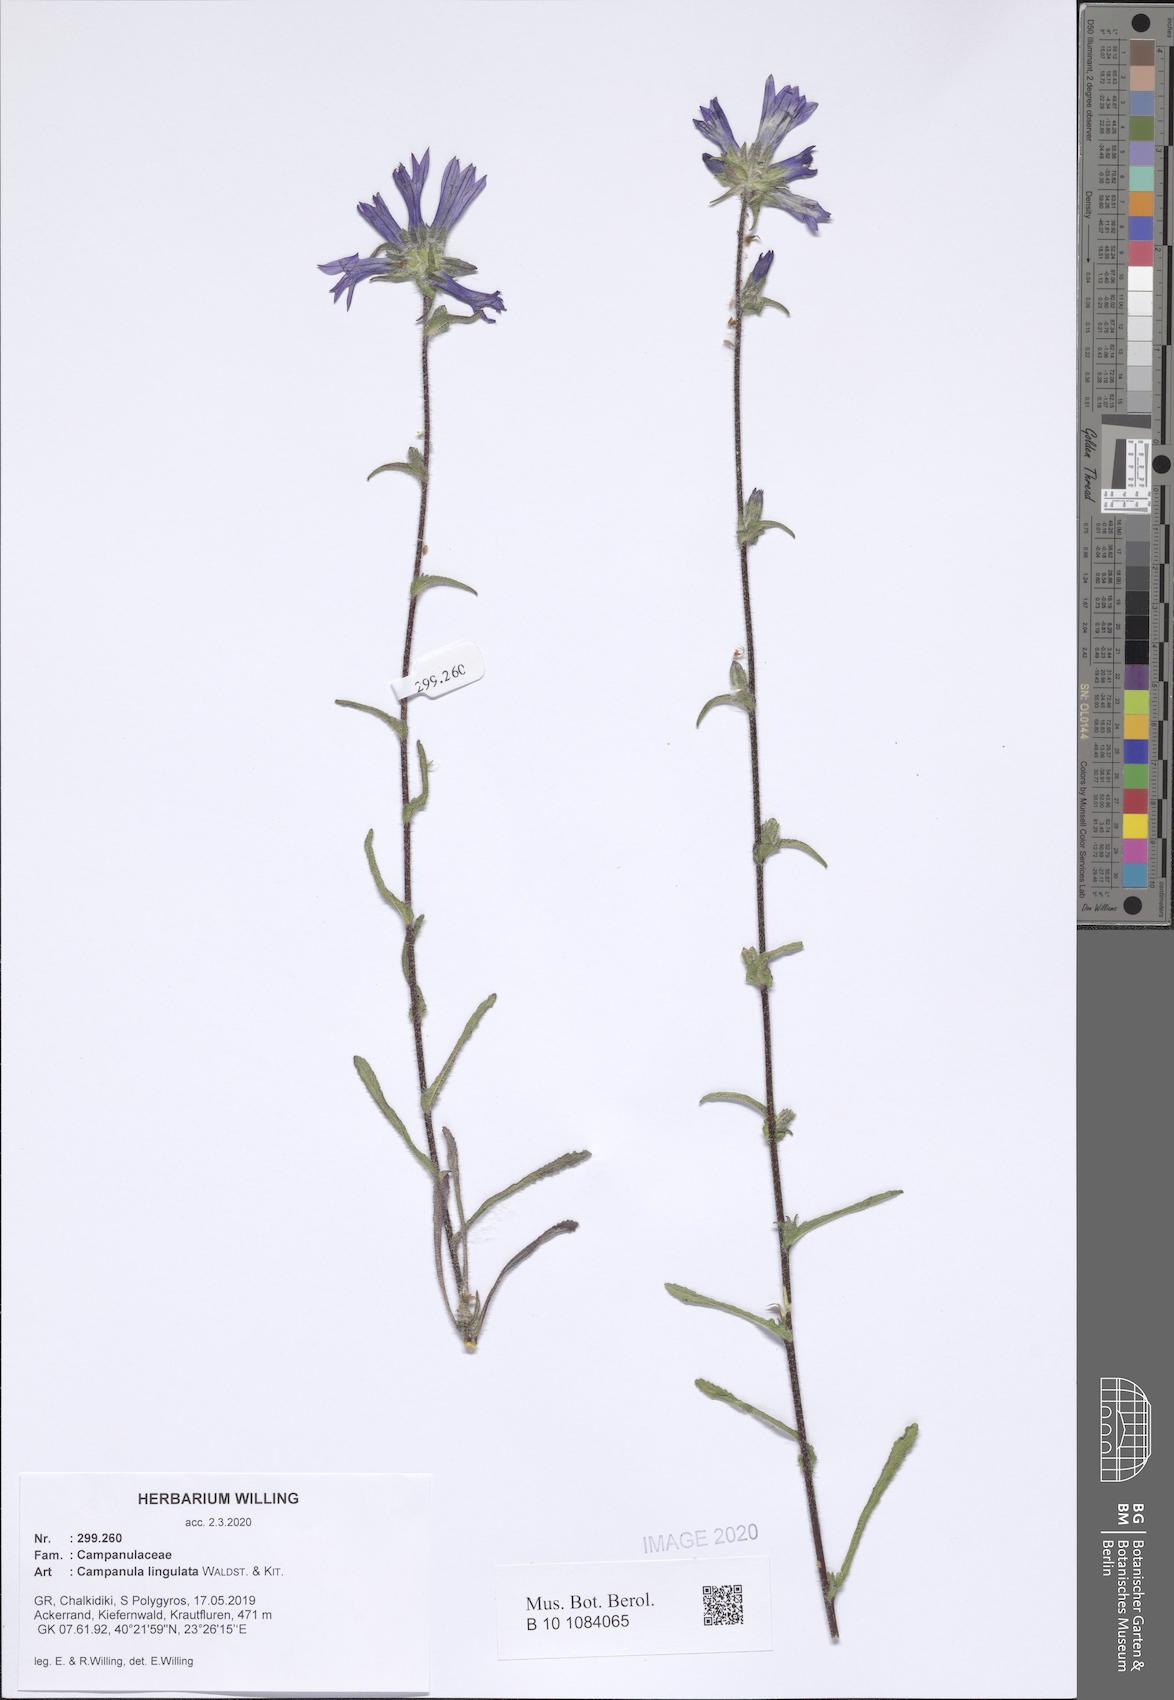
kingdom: Plantae
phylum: Tracheophyta
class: Magnoliopsida
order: Asterales
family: Campanulaceae
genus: Campanula
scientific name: Campanula lingulata
